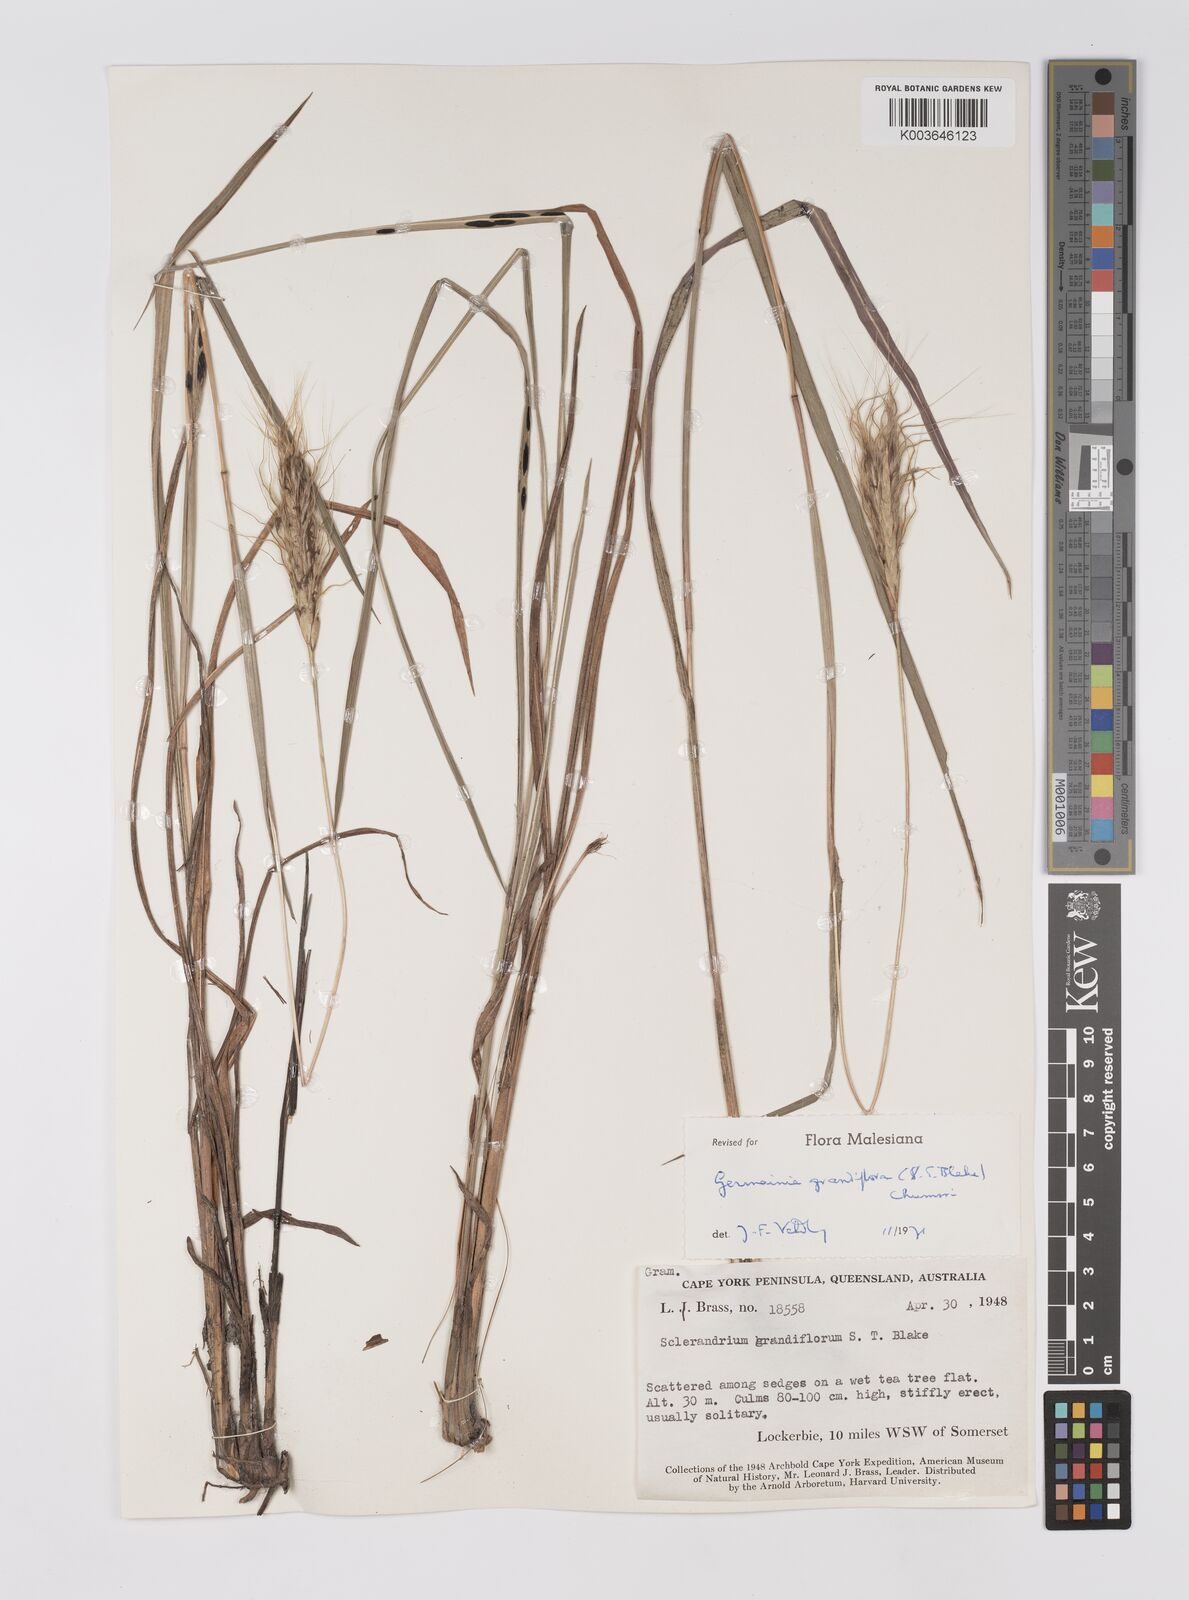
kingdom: Plantae
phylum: Tracheophyta
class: Liliopsida
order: Poales
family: Poaceae
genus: Germainia
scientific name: Germainia grandiflora
